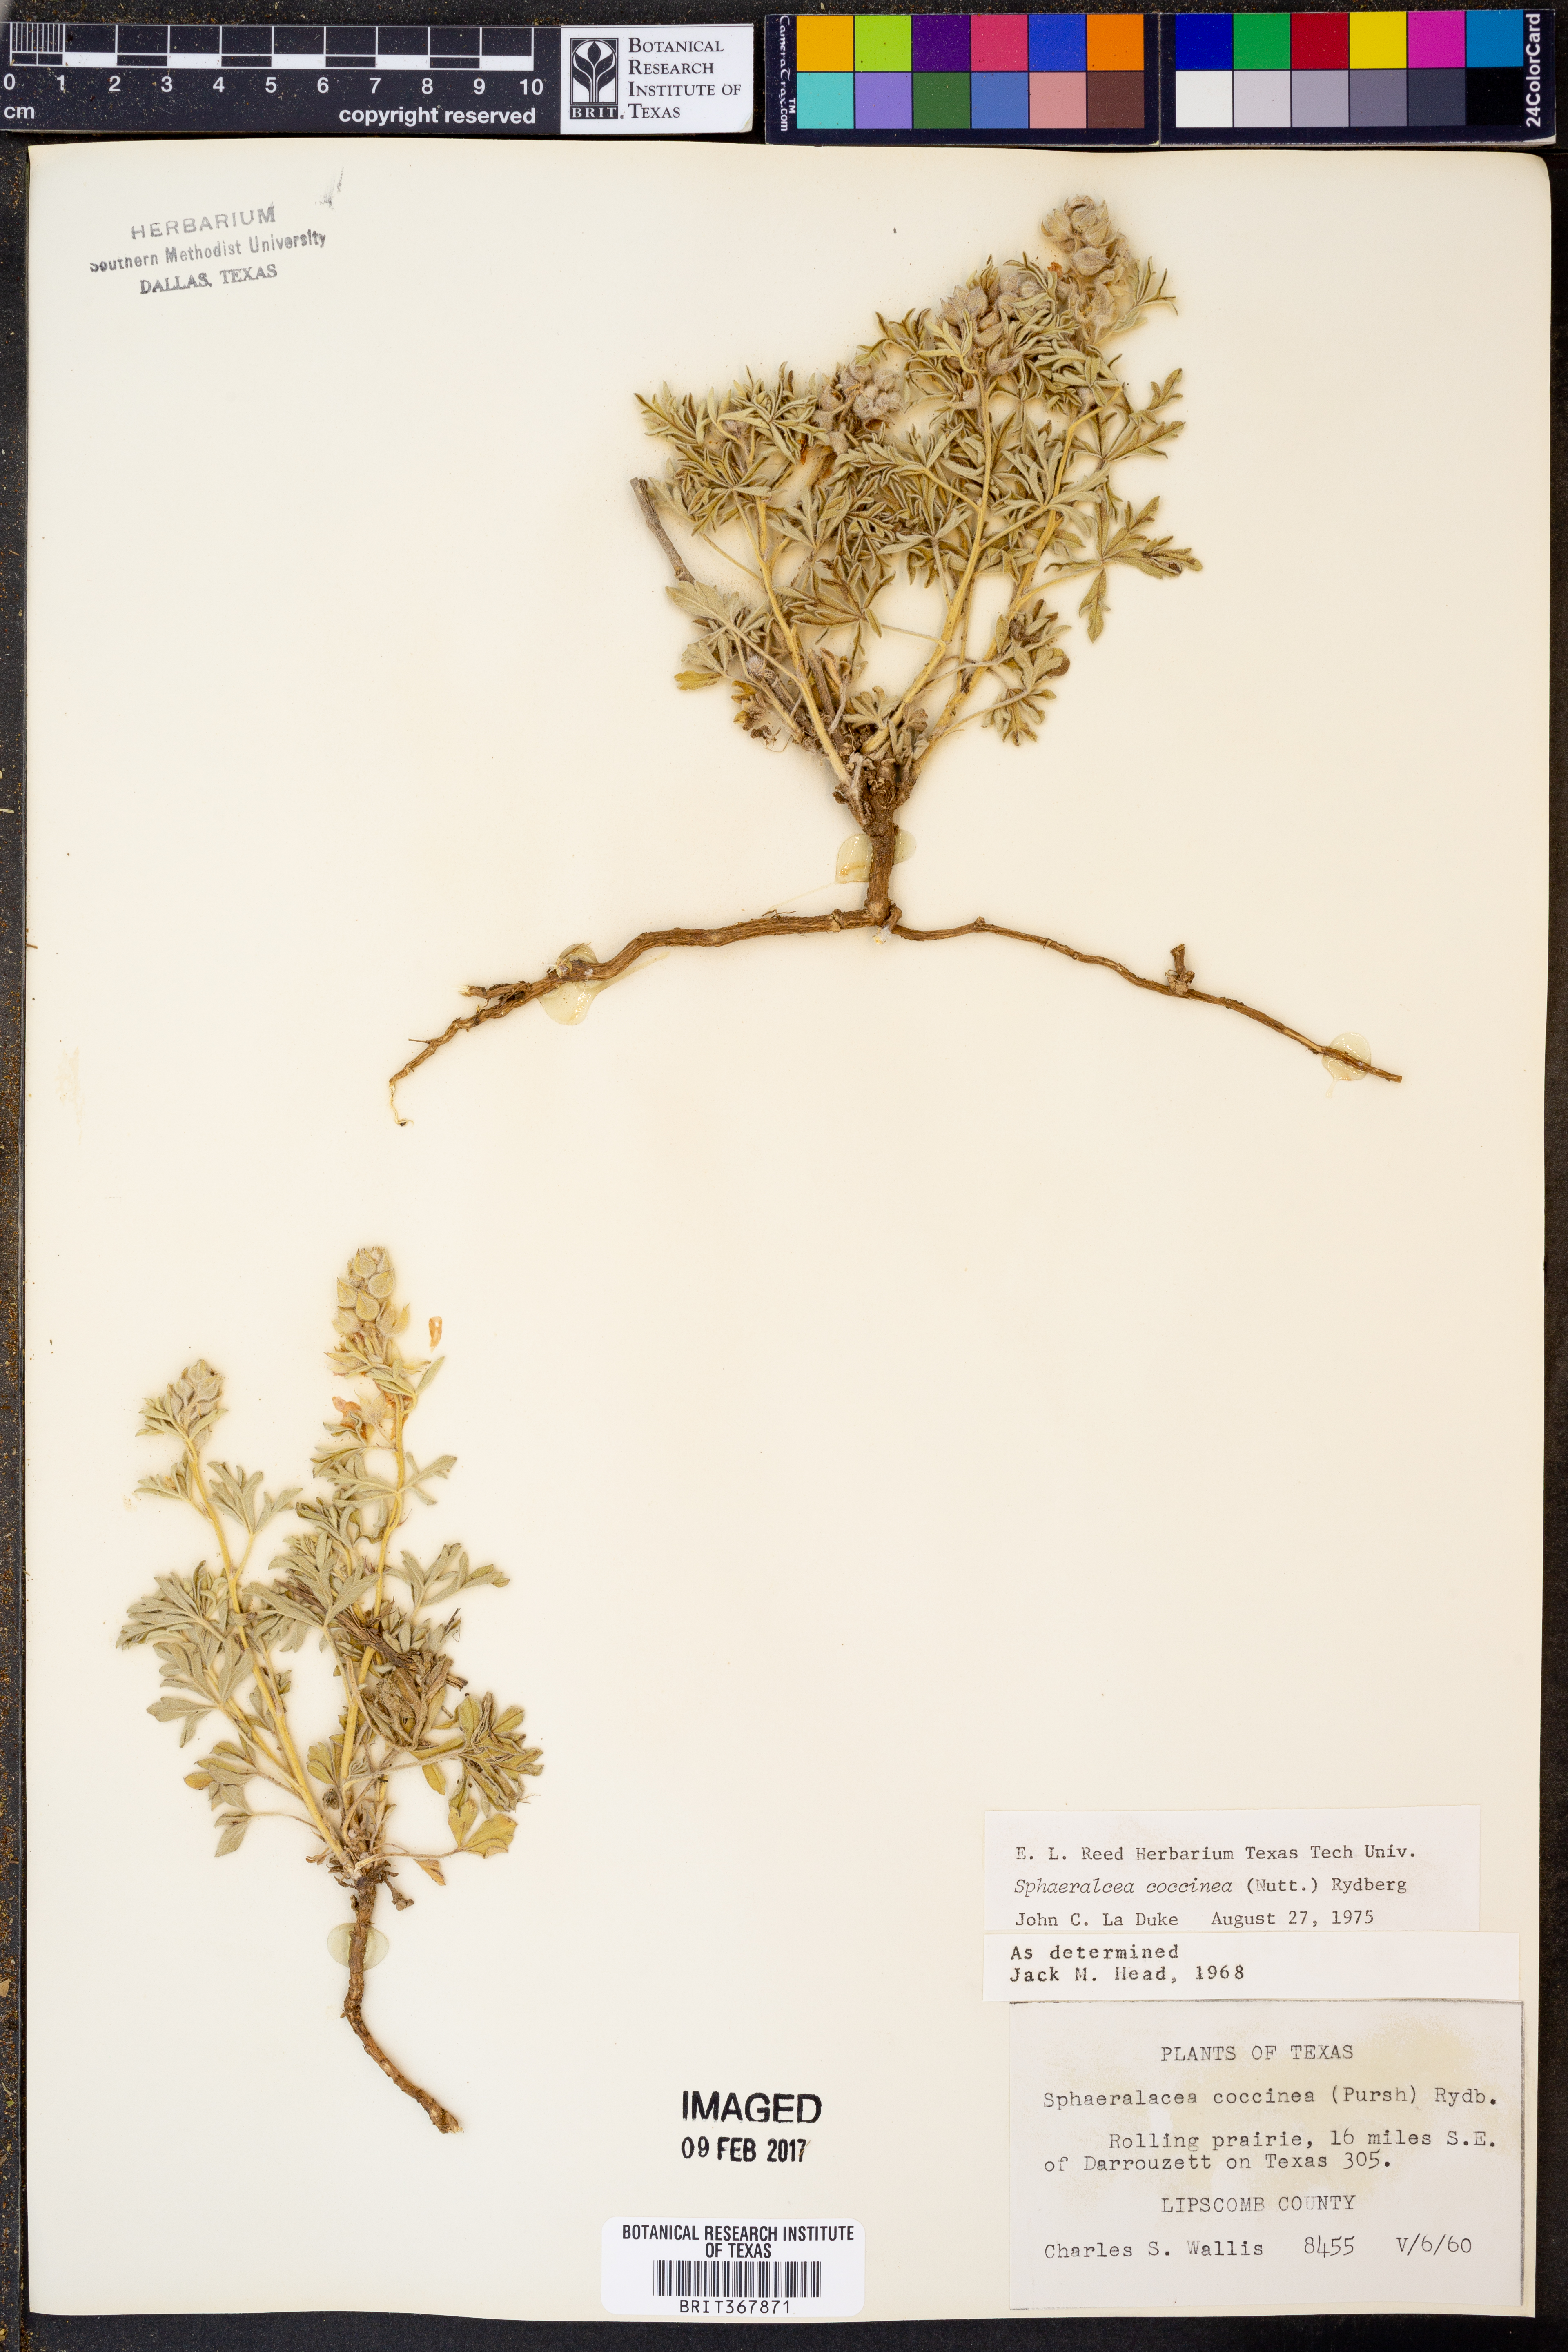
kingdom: Plantae
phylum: Tracheophyta
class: Magnoliopsida
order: Malvales
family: Malvaceae
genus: Sphaeralcea
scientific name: Sphaeralcea coccinea
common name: Moss-rose
